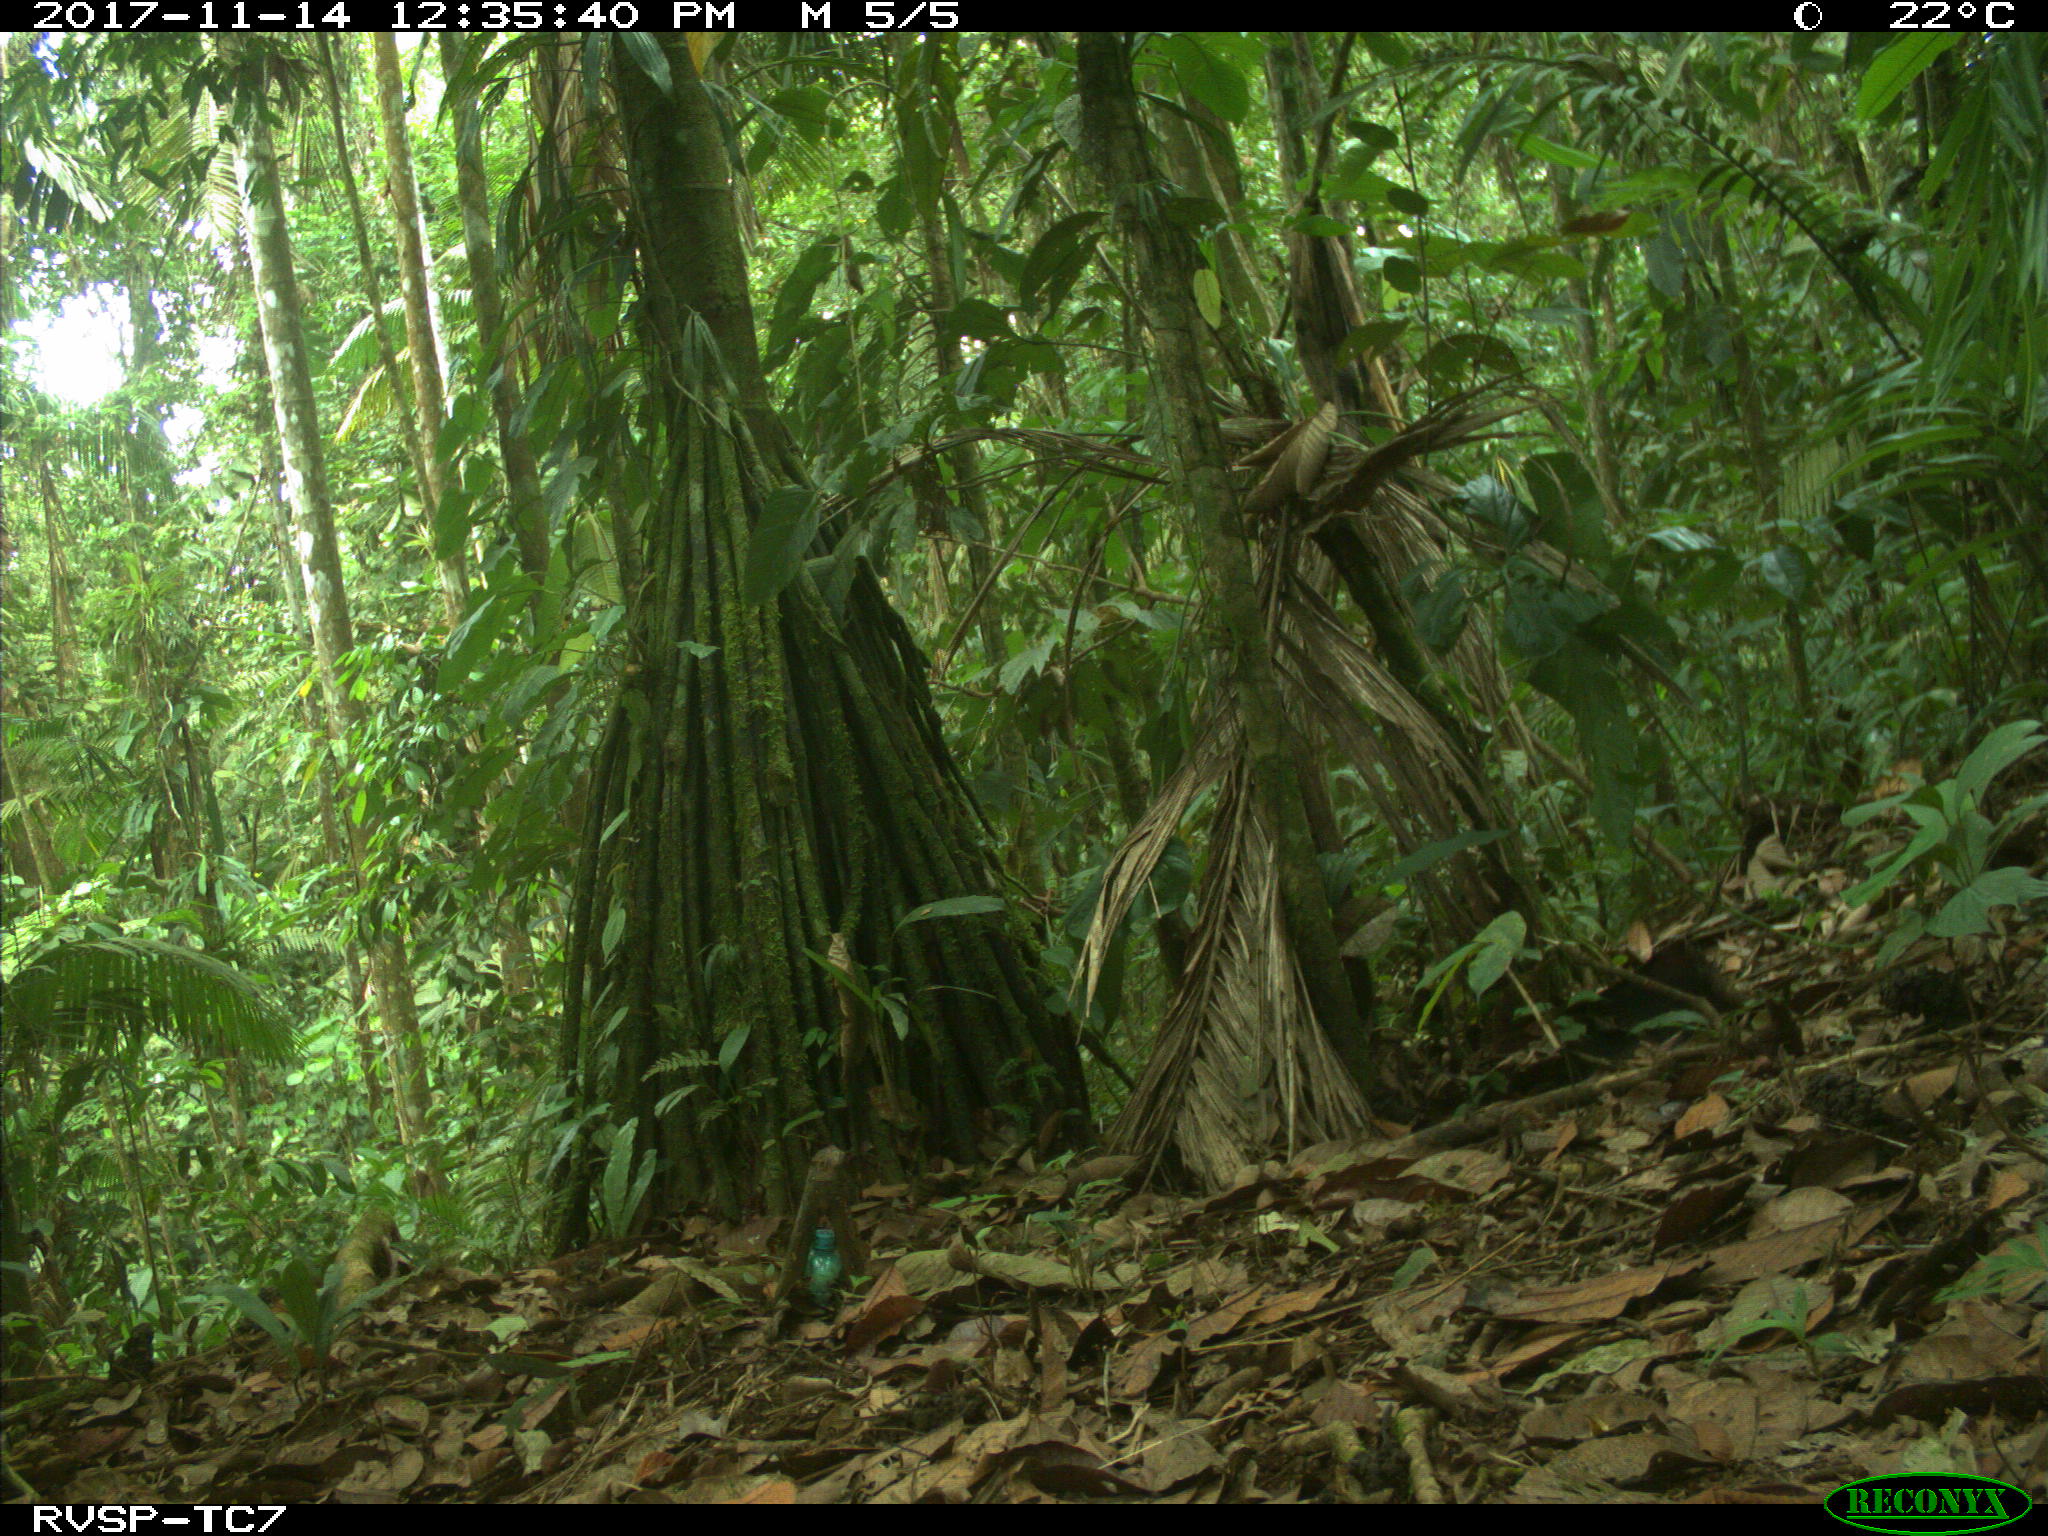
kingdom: Animalia
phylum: Chordata
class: Mammalia
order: Rodentia
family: Dasyproctidae
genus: Dasyprocta
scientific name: Dasyprocta punctata
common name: Central american agouti
